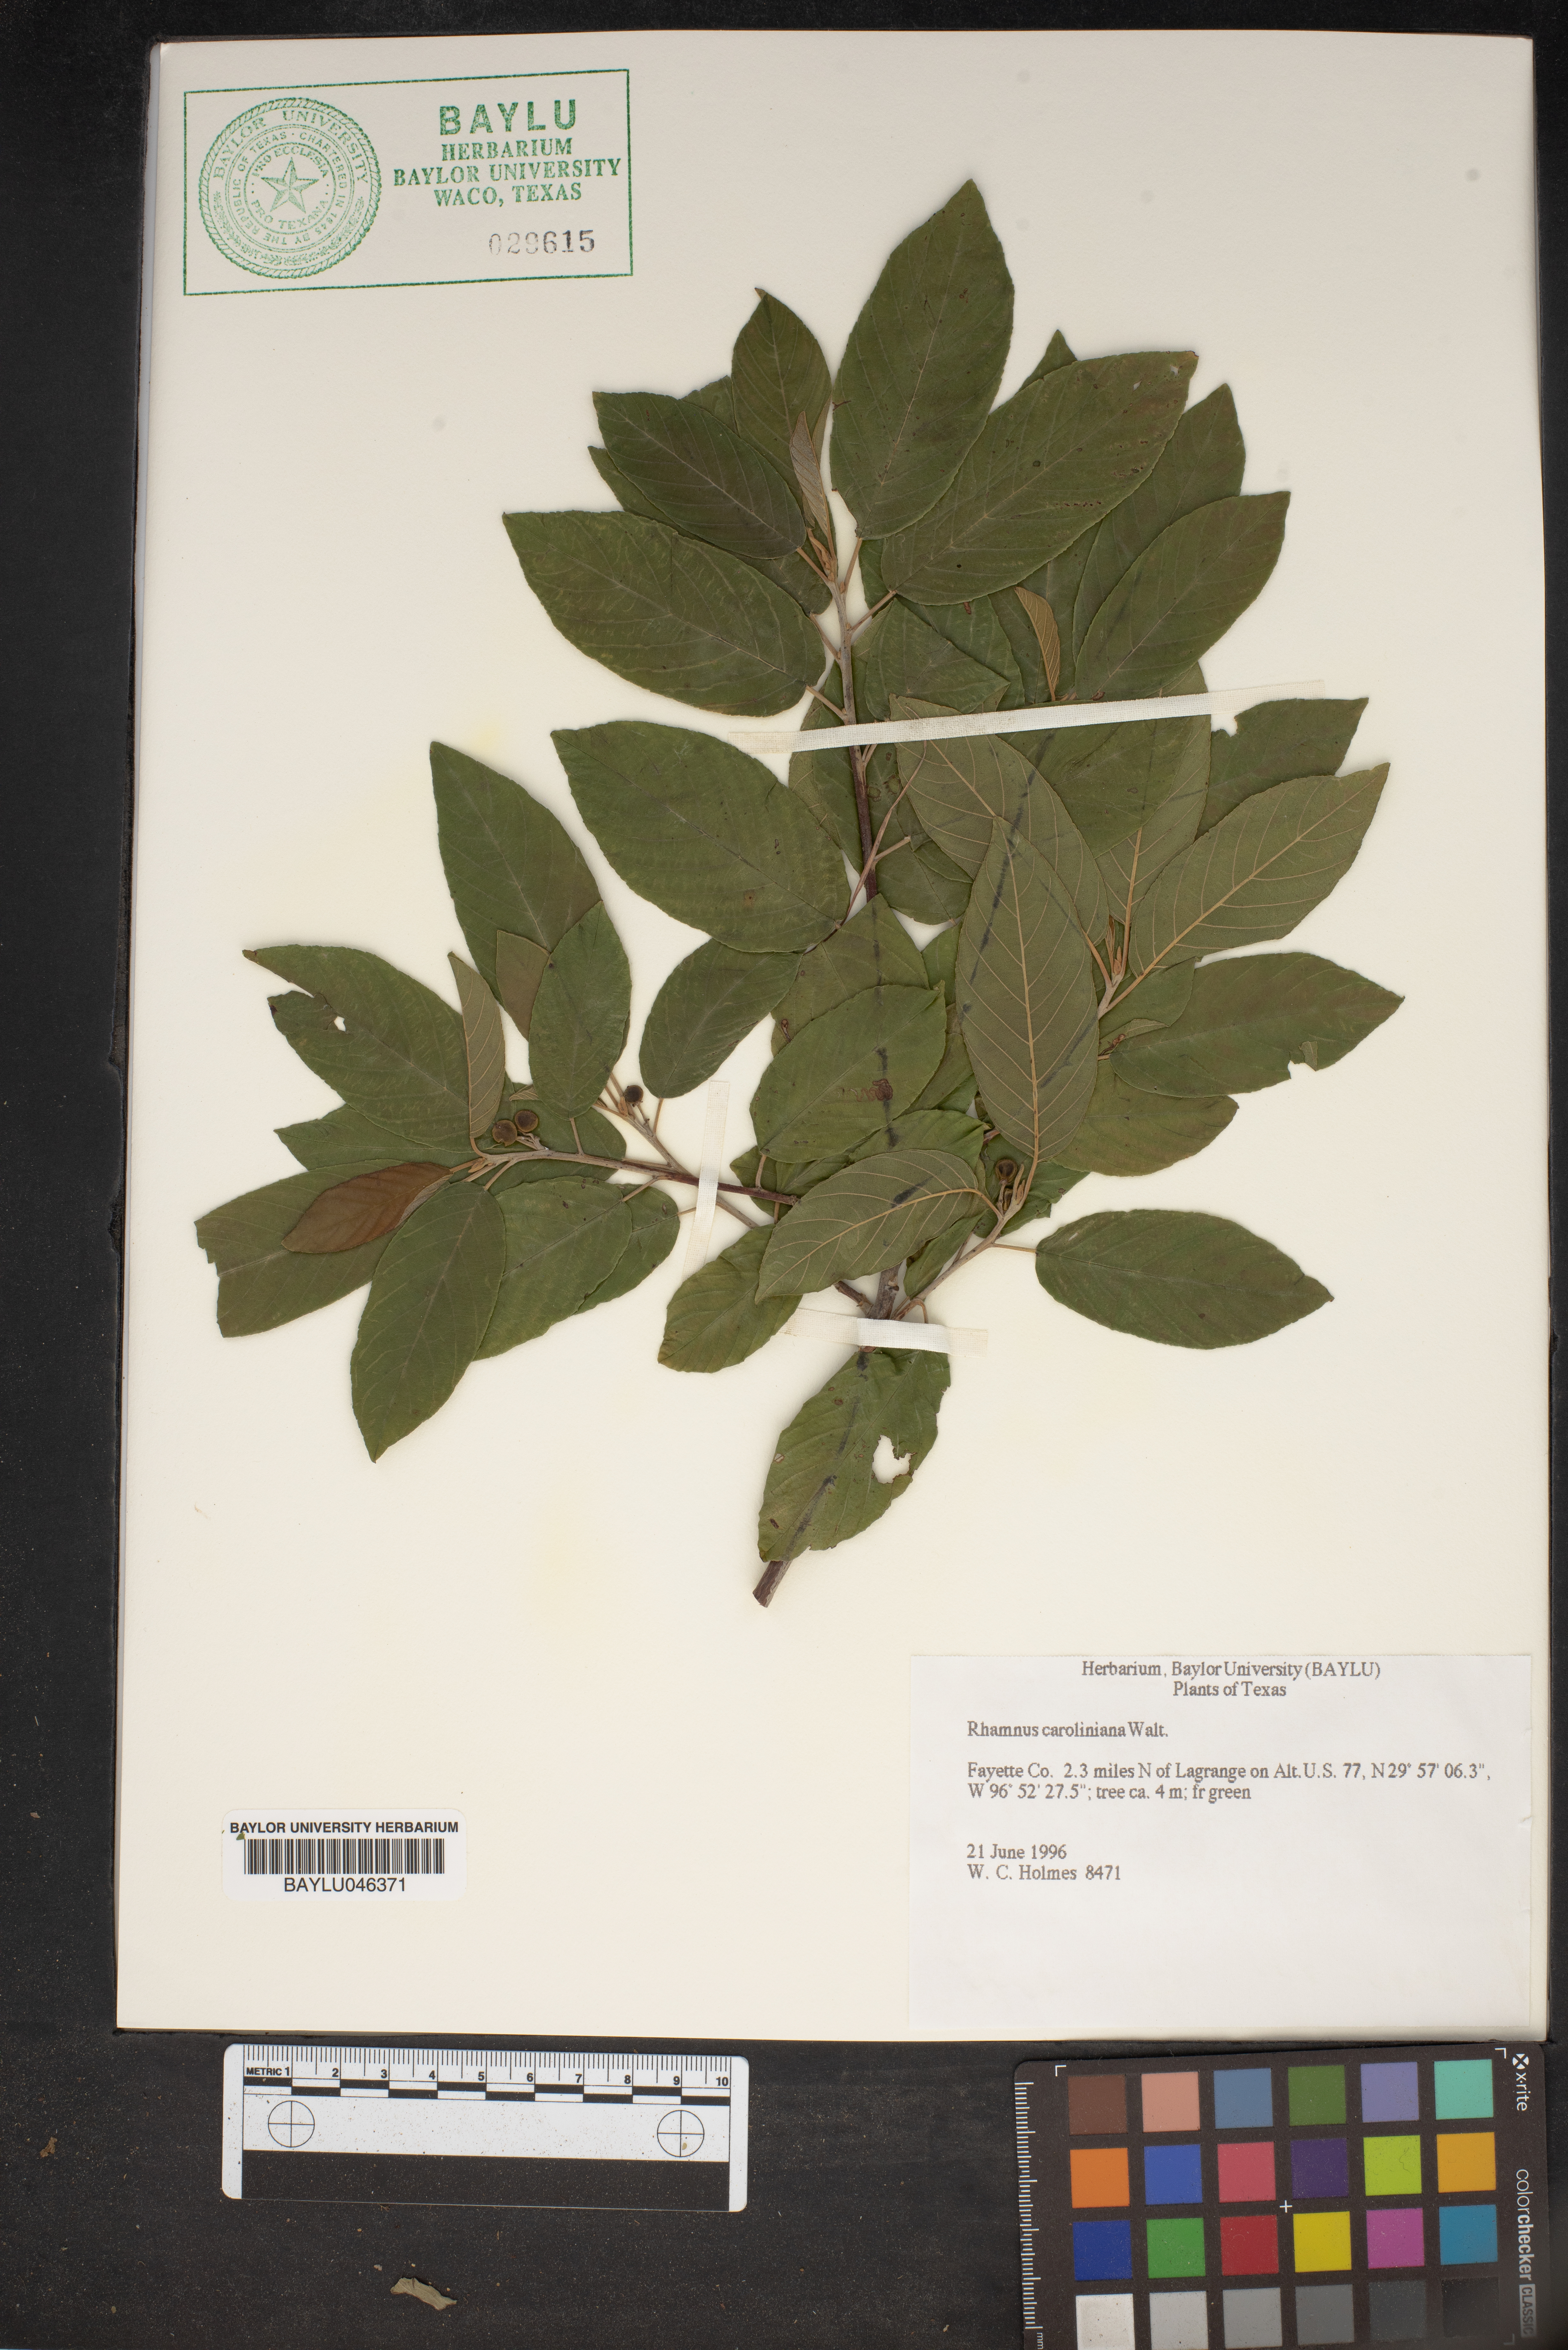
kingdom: Plantae
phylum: Tracheophyta
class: Magnoliopsida
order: Rosales
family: Rhamnaceae
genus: Frangula
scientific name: Frangula caroliniana
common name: Carolina buckthorn
